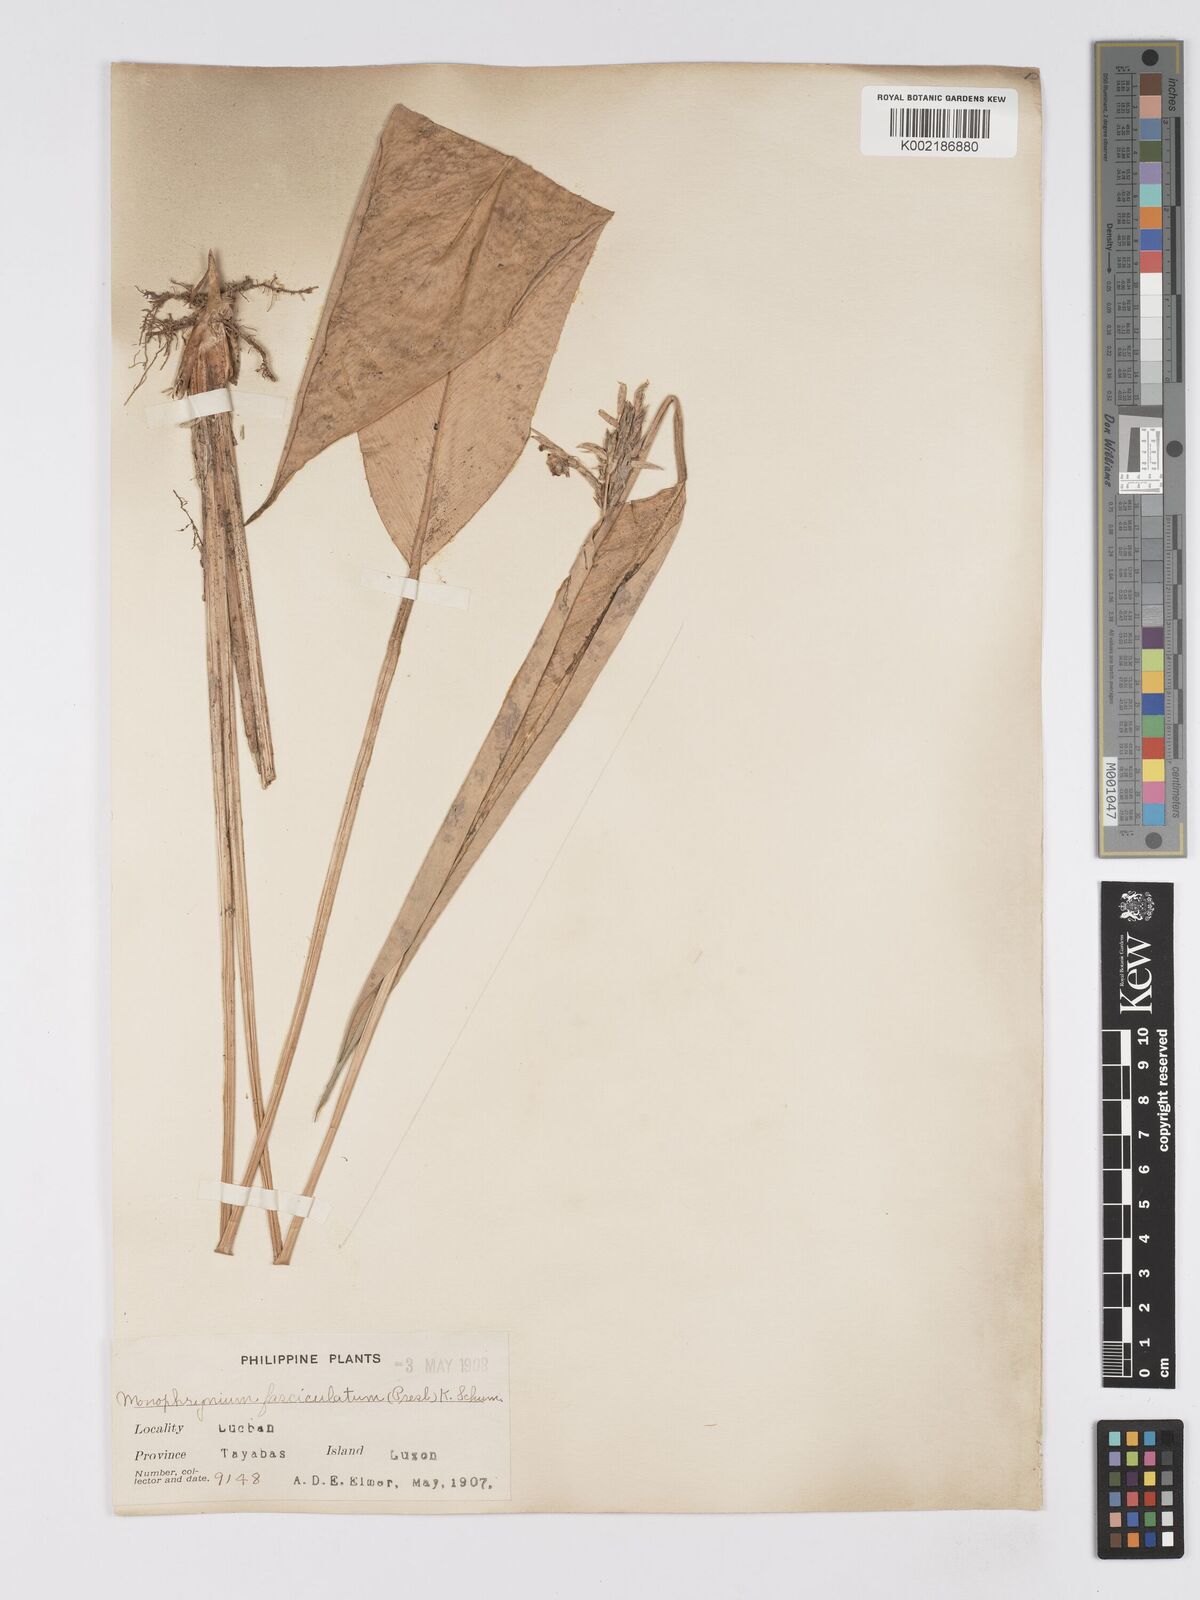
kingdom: Plantae
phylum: Tracheophyta
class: Liliopsida
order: Zingiberales
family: Marantaceae
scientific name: Marantaceae
